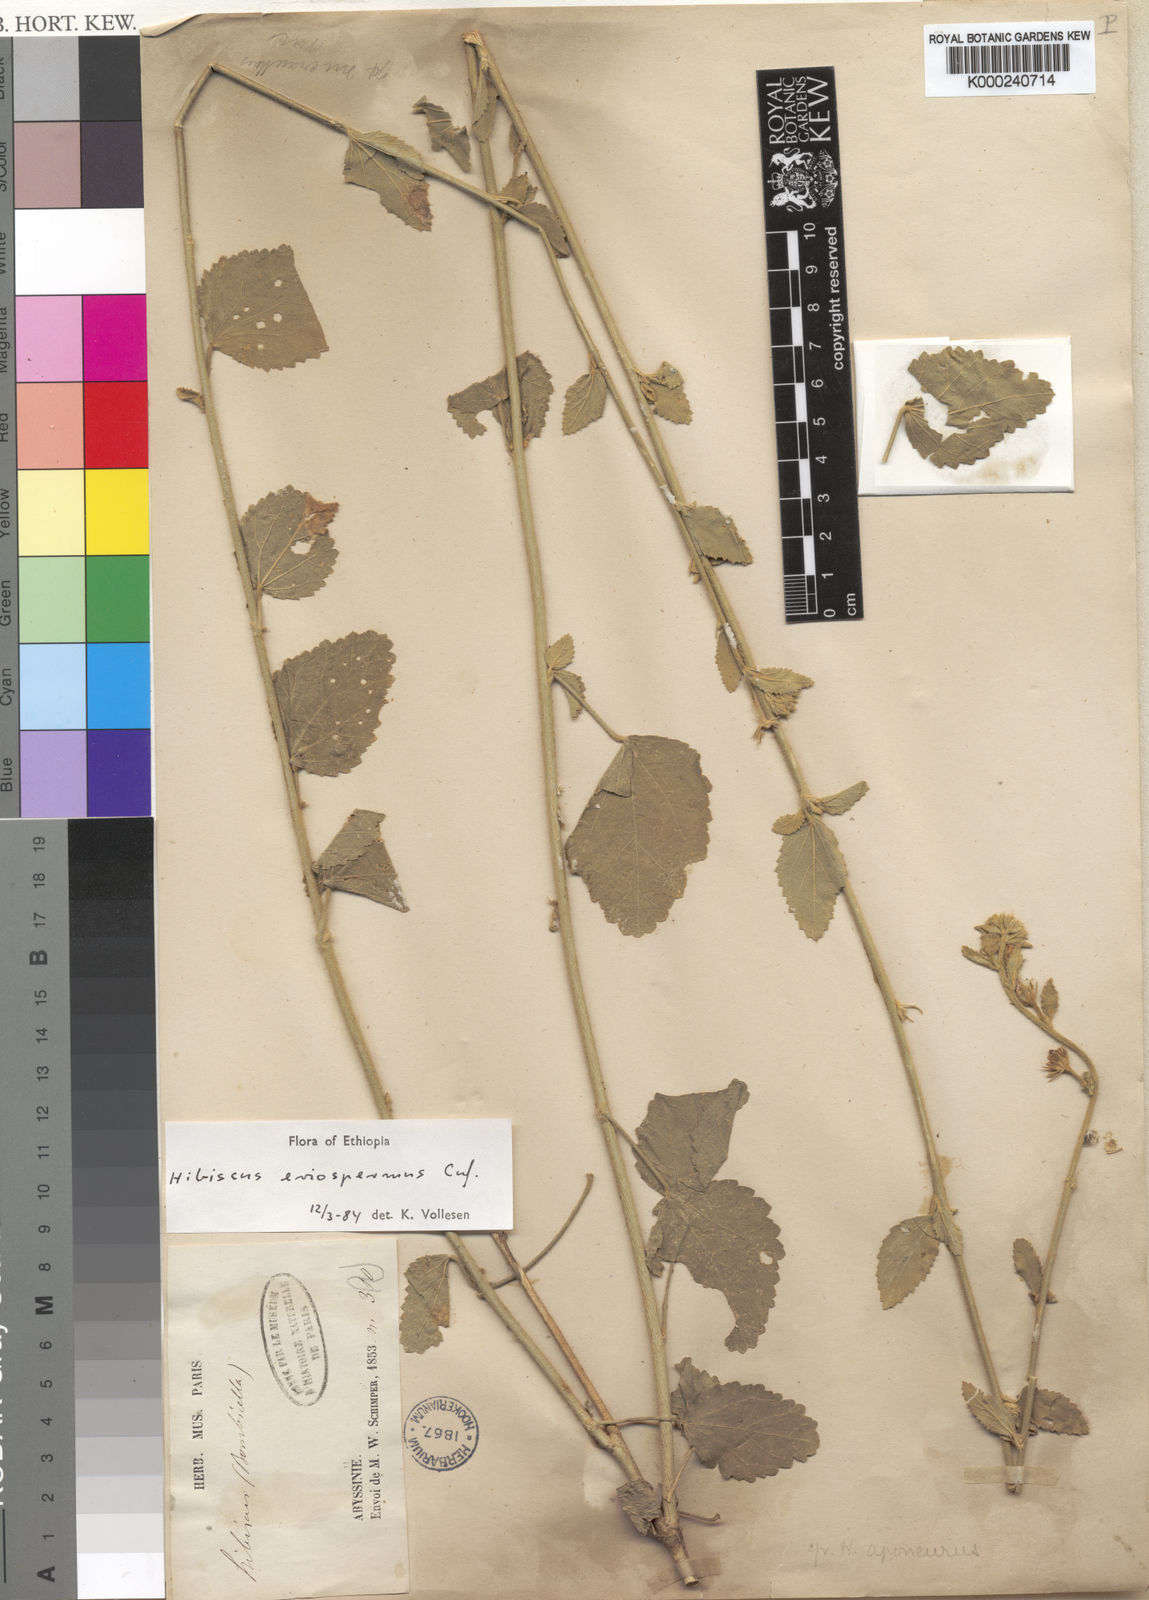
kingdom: Plantae
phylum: Tracheophyta
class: Magnoliopsida
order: Malvales
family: Malvaceae
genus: Hibiscus
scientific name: Hibiscus eriospermus
